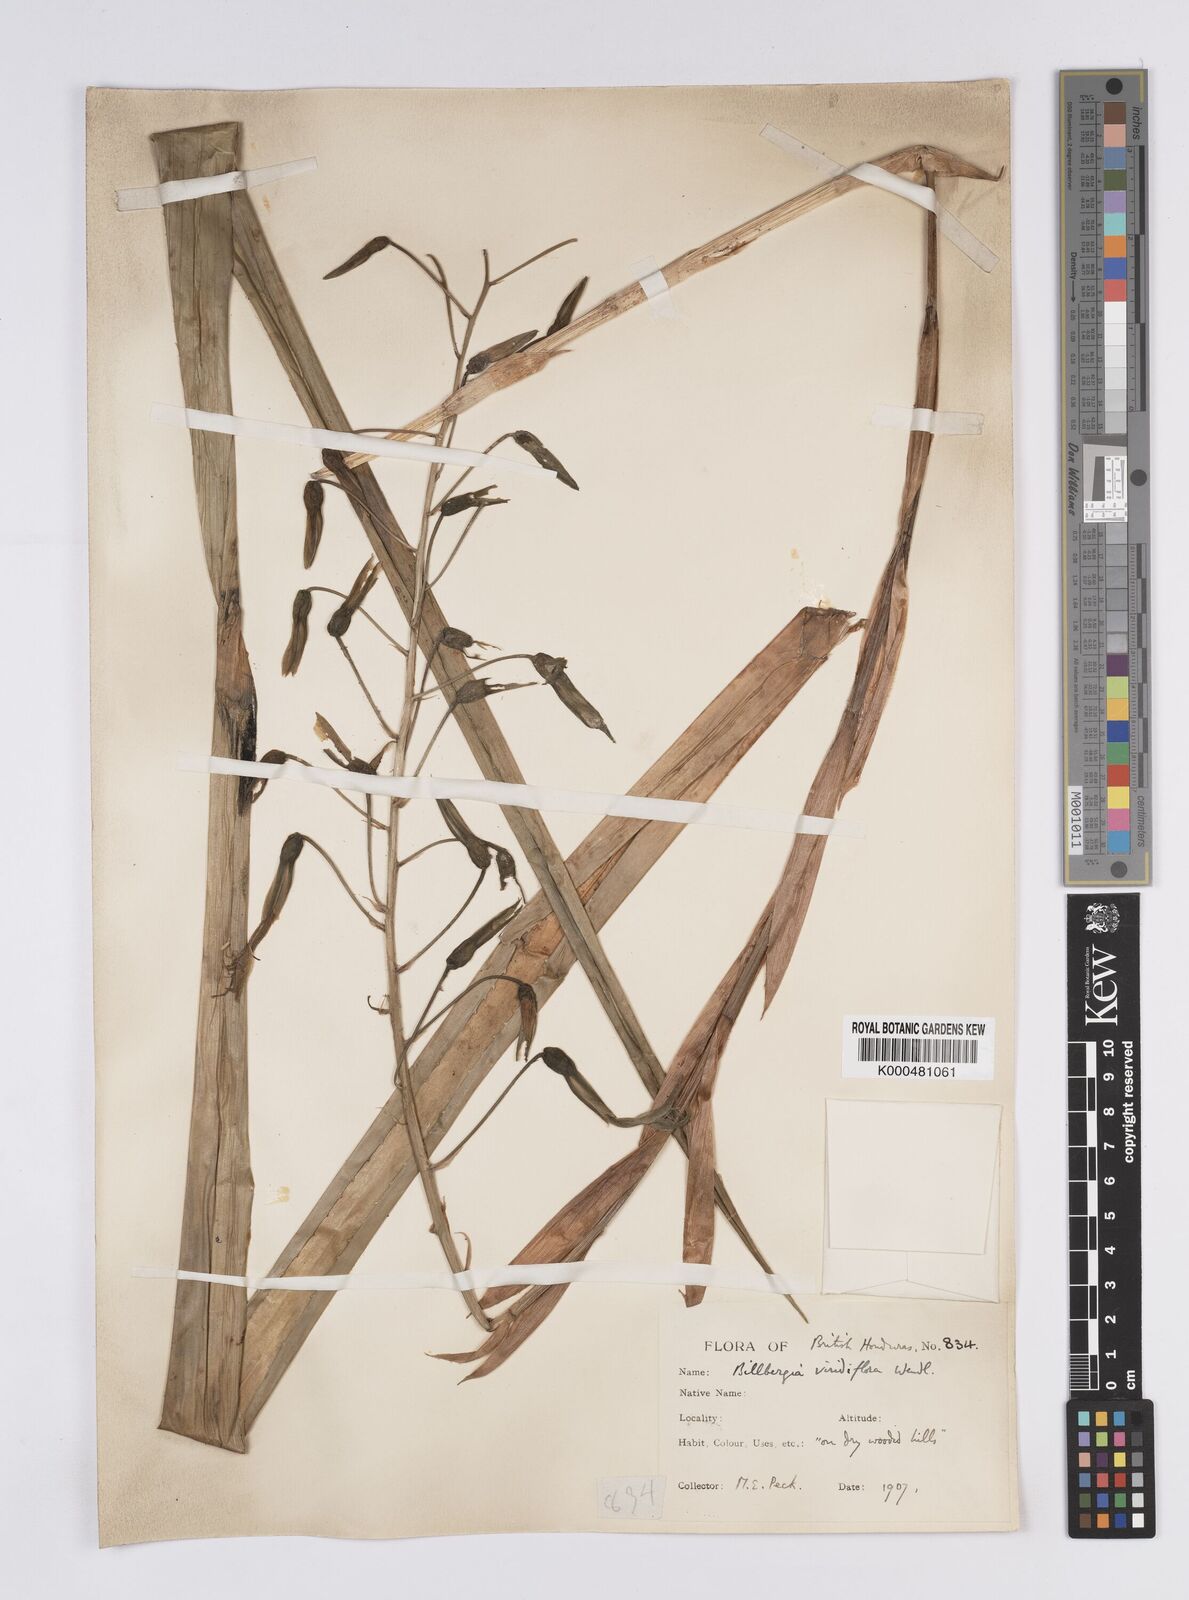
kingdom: Plantae
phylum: Tracheophyta
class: Liliopsida
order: Poales
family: Bromeliaceae
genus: Billbergia
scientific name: Billbergia viridiflora
